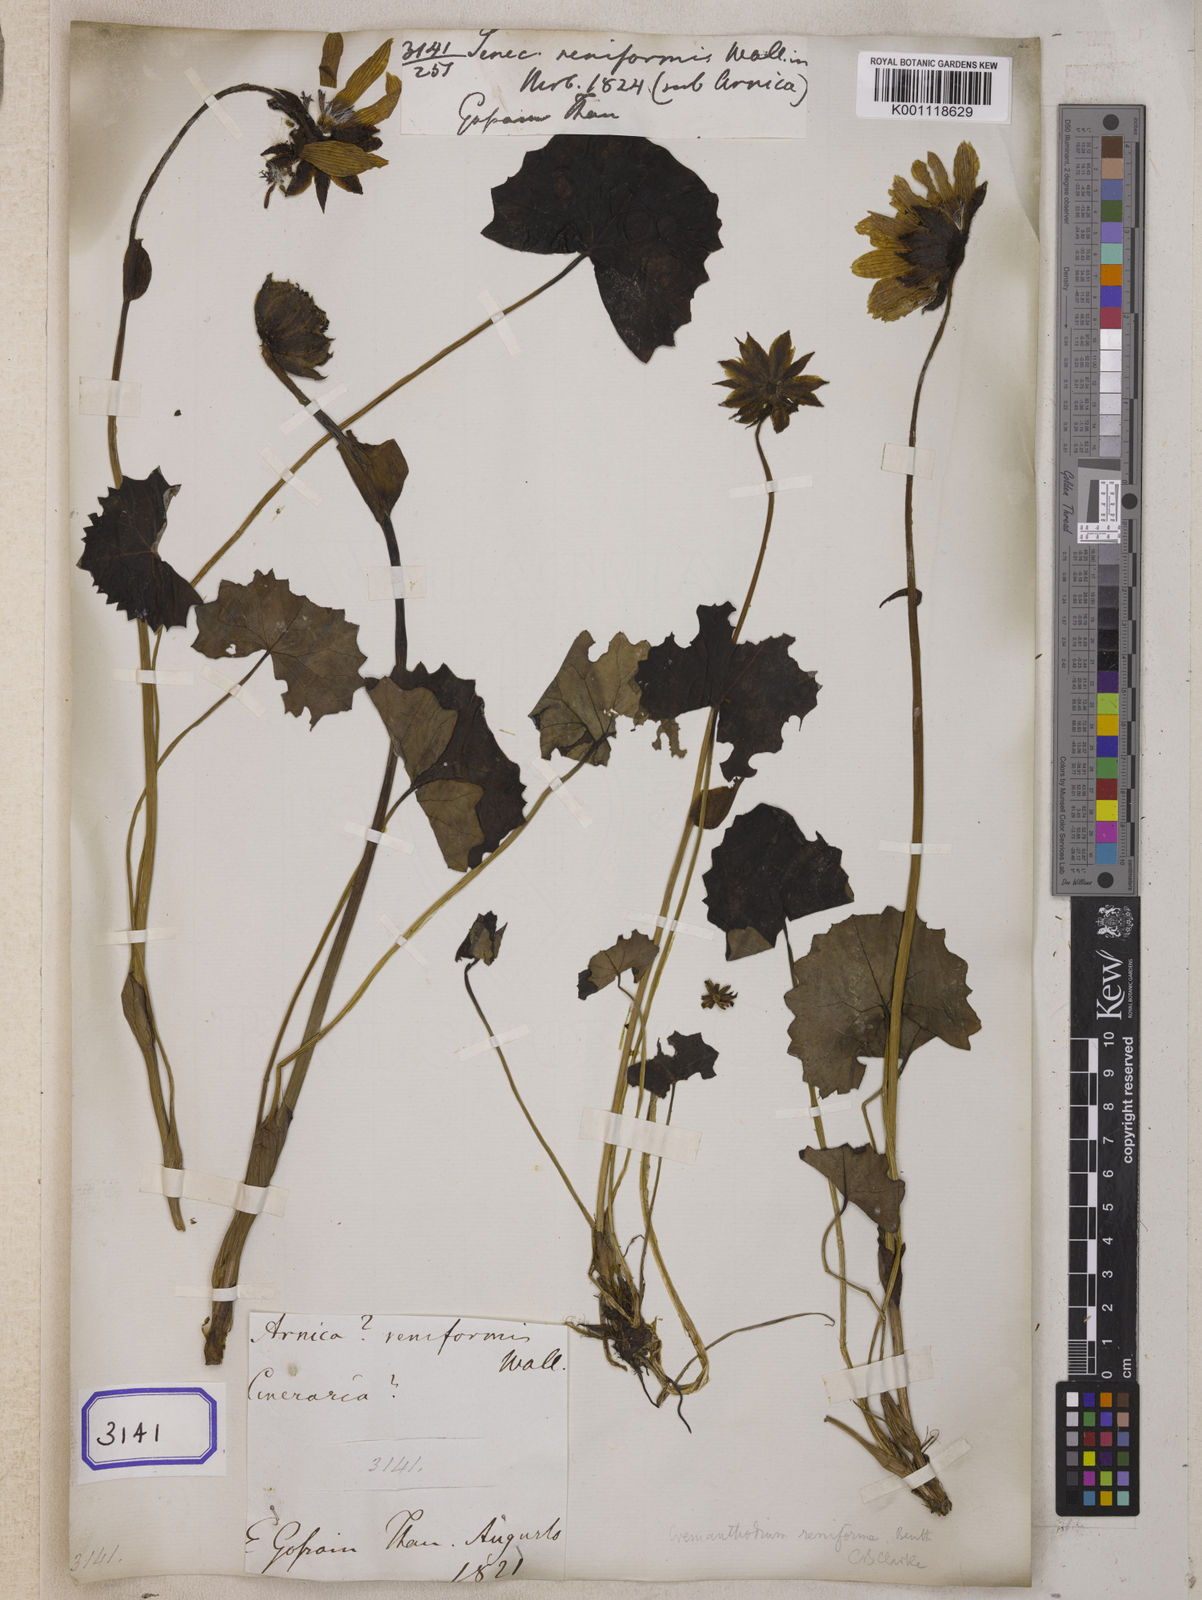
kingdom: Plantae
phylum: Tracheophyta
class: Magnoliopsida
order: Asterales
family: Asteraceae
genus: Cremanthodium
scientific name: Cremanthodium reniforme
